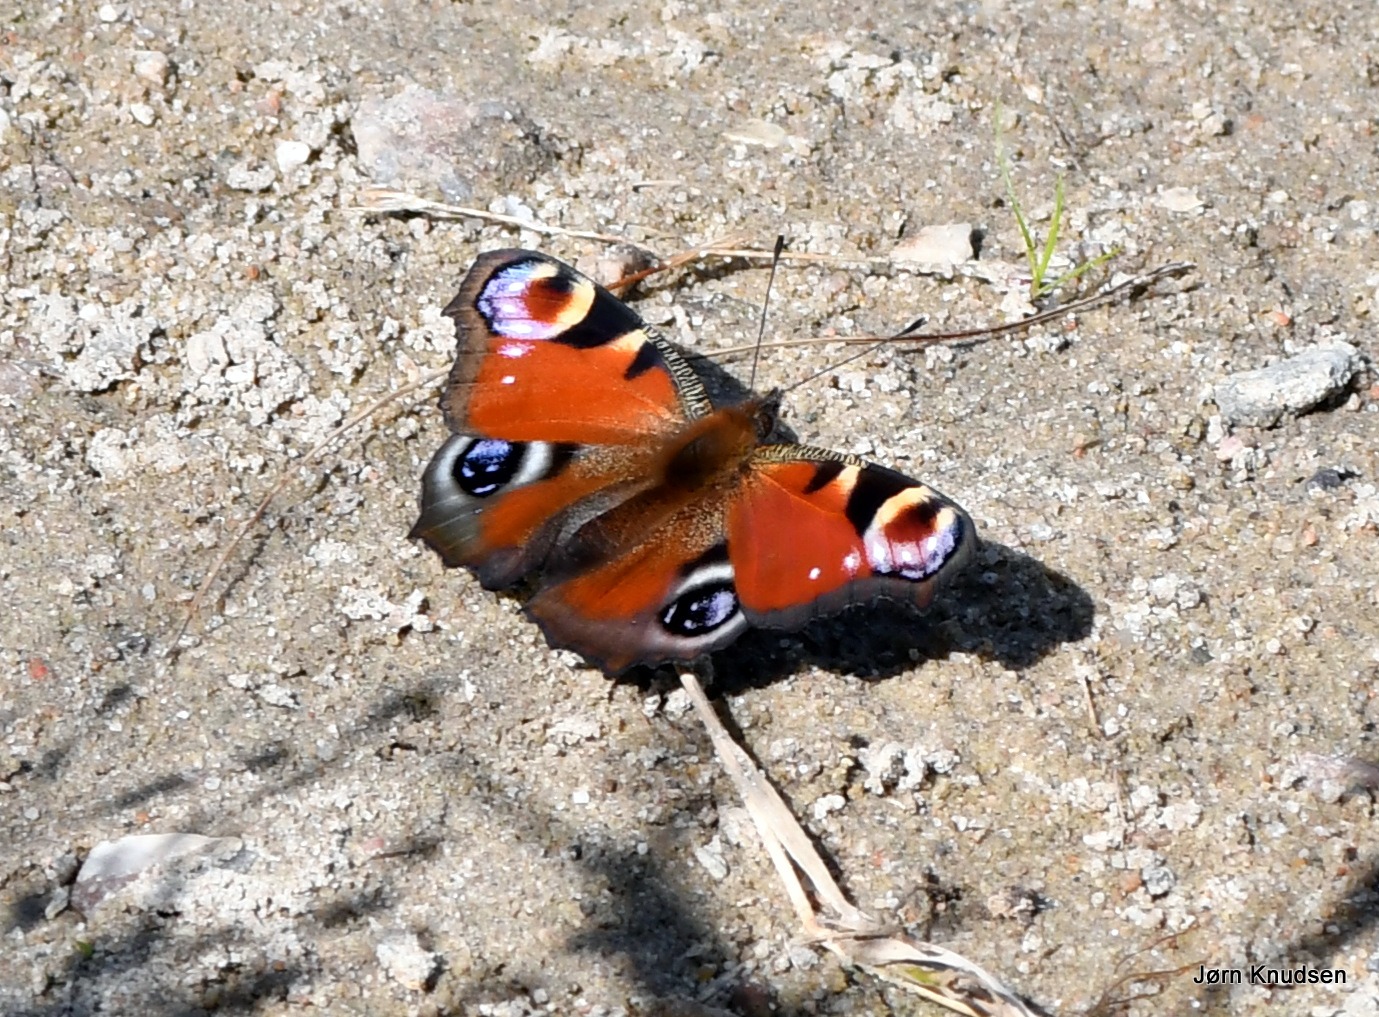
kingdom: Animalia
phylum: Arthropoda
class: Insecta
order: Lepidoptera
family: Nymphalidae
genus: Aglais
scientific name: Aglais io
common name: Dagpåfugleøje
